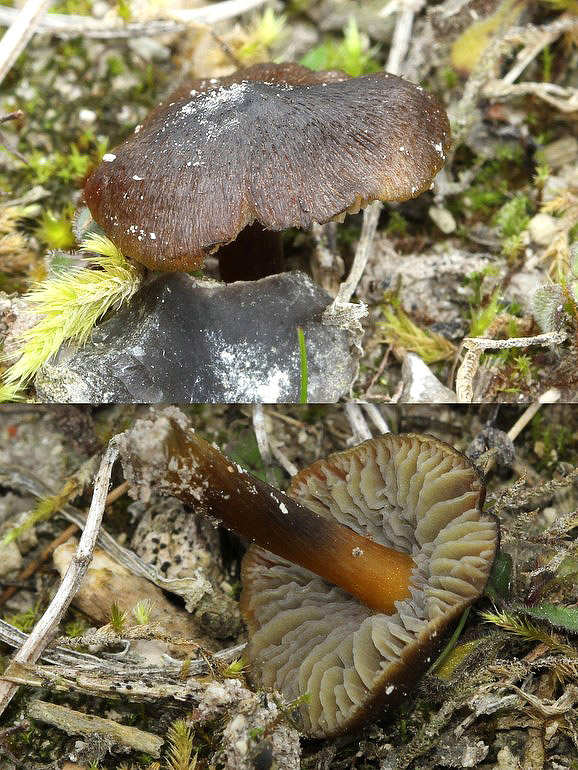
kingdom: Fungi
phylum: Basidiomycota
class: Agaricomycetes
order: Agaricales
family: Hygrophoraceae
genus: Hygrocybe
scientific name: Hygrocybe conica
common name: kegle-vokshat
